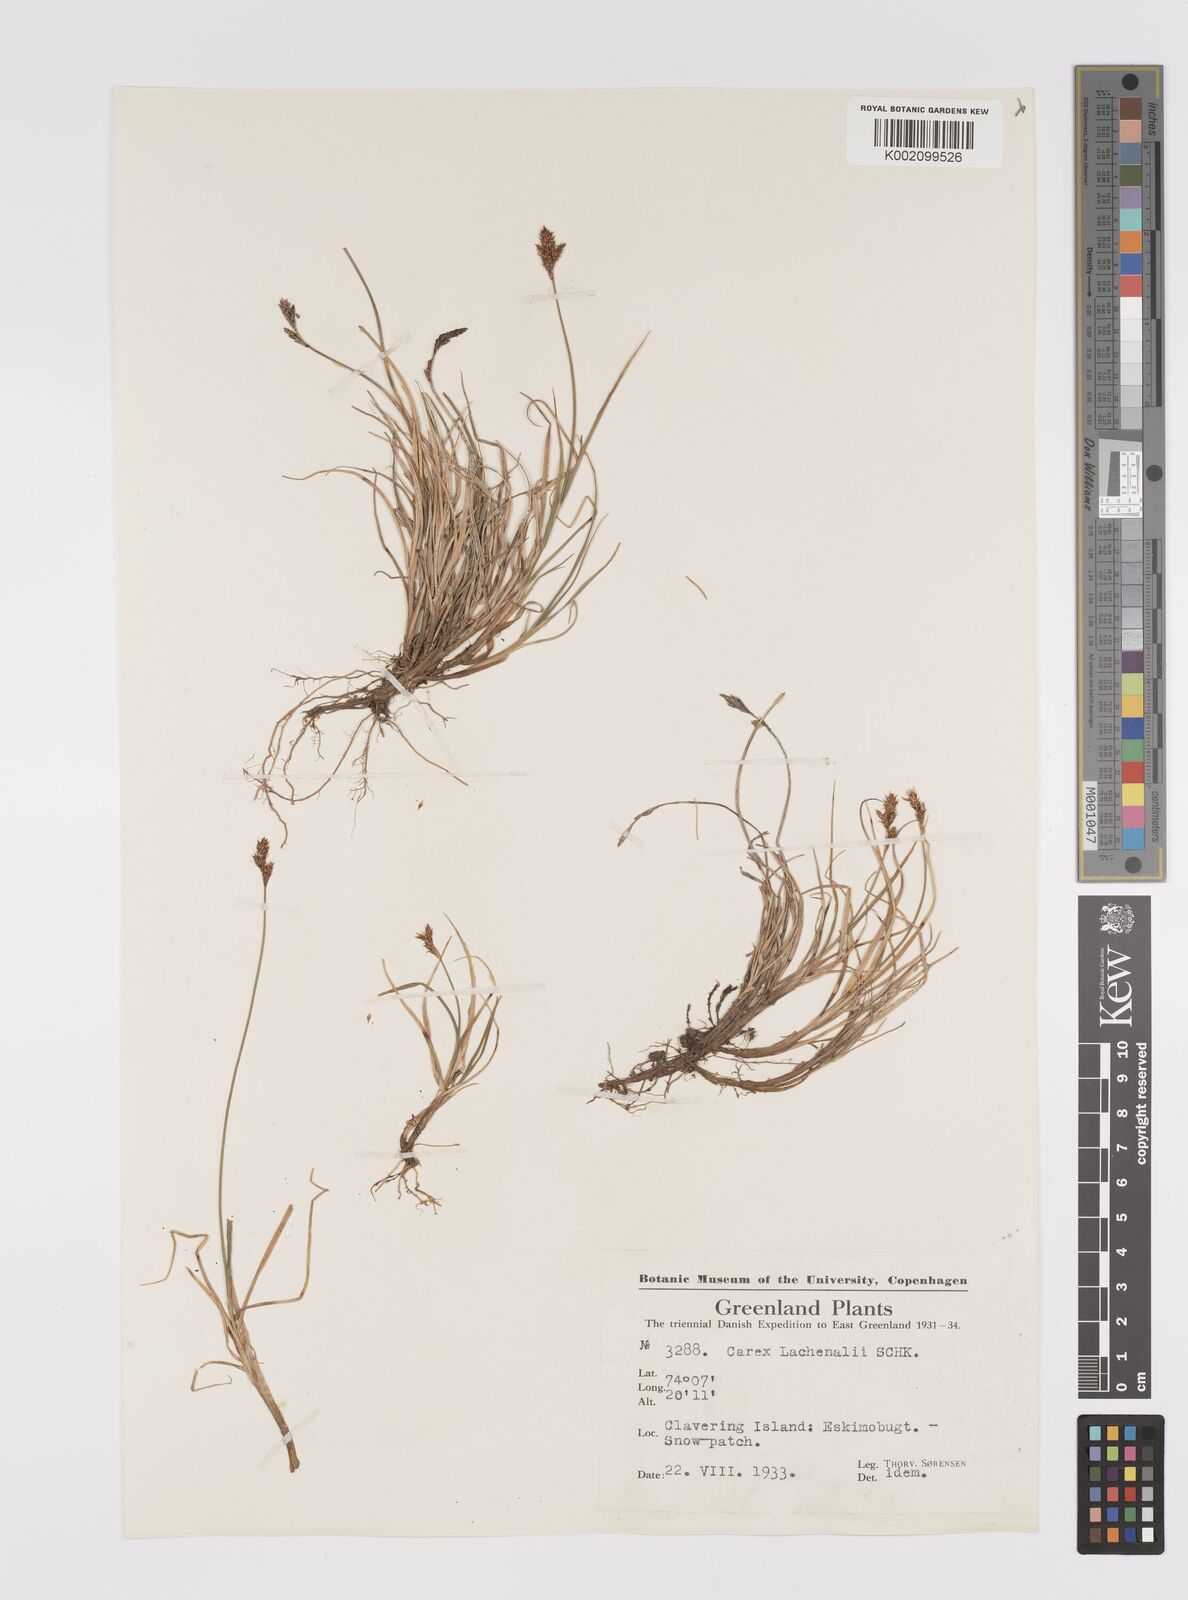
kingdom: Plantae
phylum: Tracheophyta
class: Liliopsida
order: Poales
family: Cyperaceae
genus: Carex
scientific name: Carex lachenalii
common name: Hare's-foot sedge
